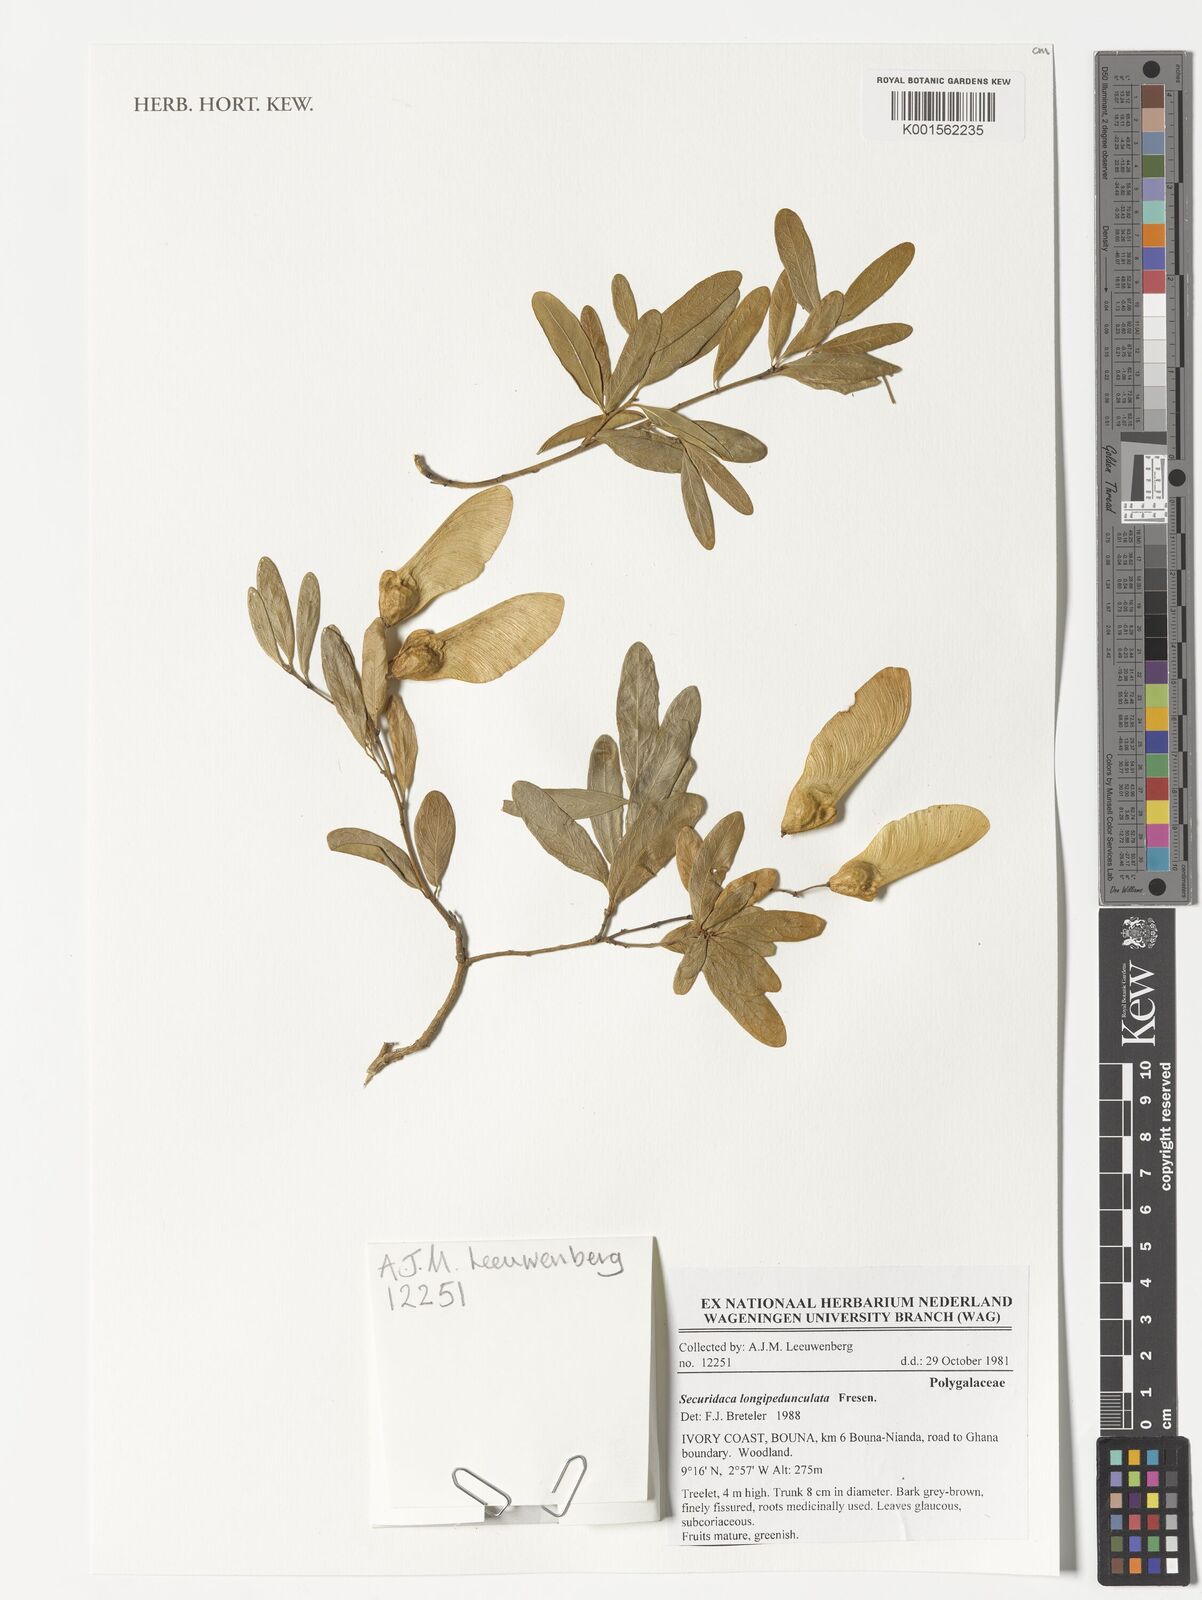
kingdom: Plantae
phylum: Tracheophyta
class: Magnoliopsida
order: Fabales
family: Polygalaceae
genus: Securidaca
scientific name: Securidaca longepedunculata
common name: Violet tree
